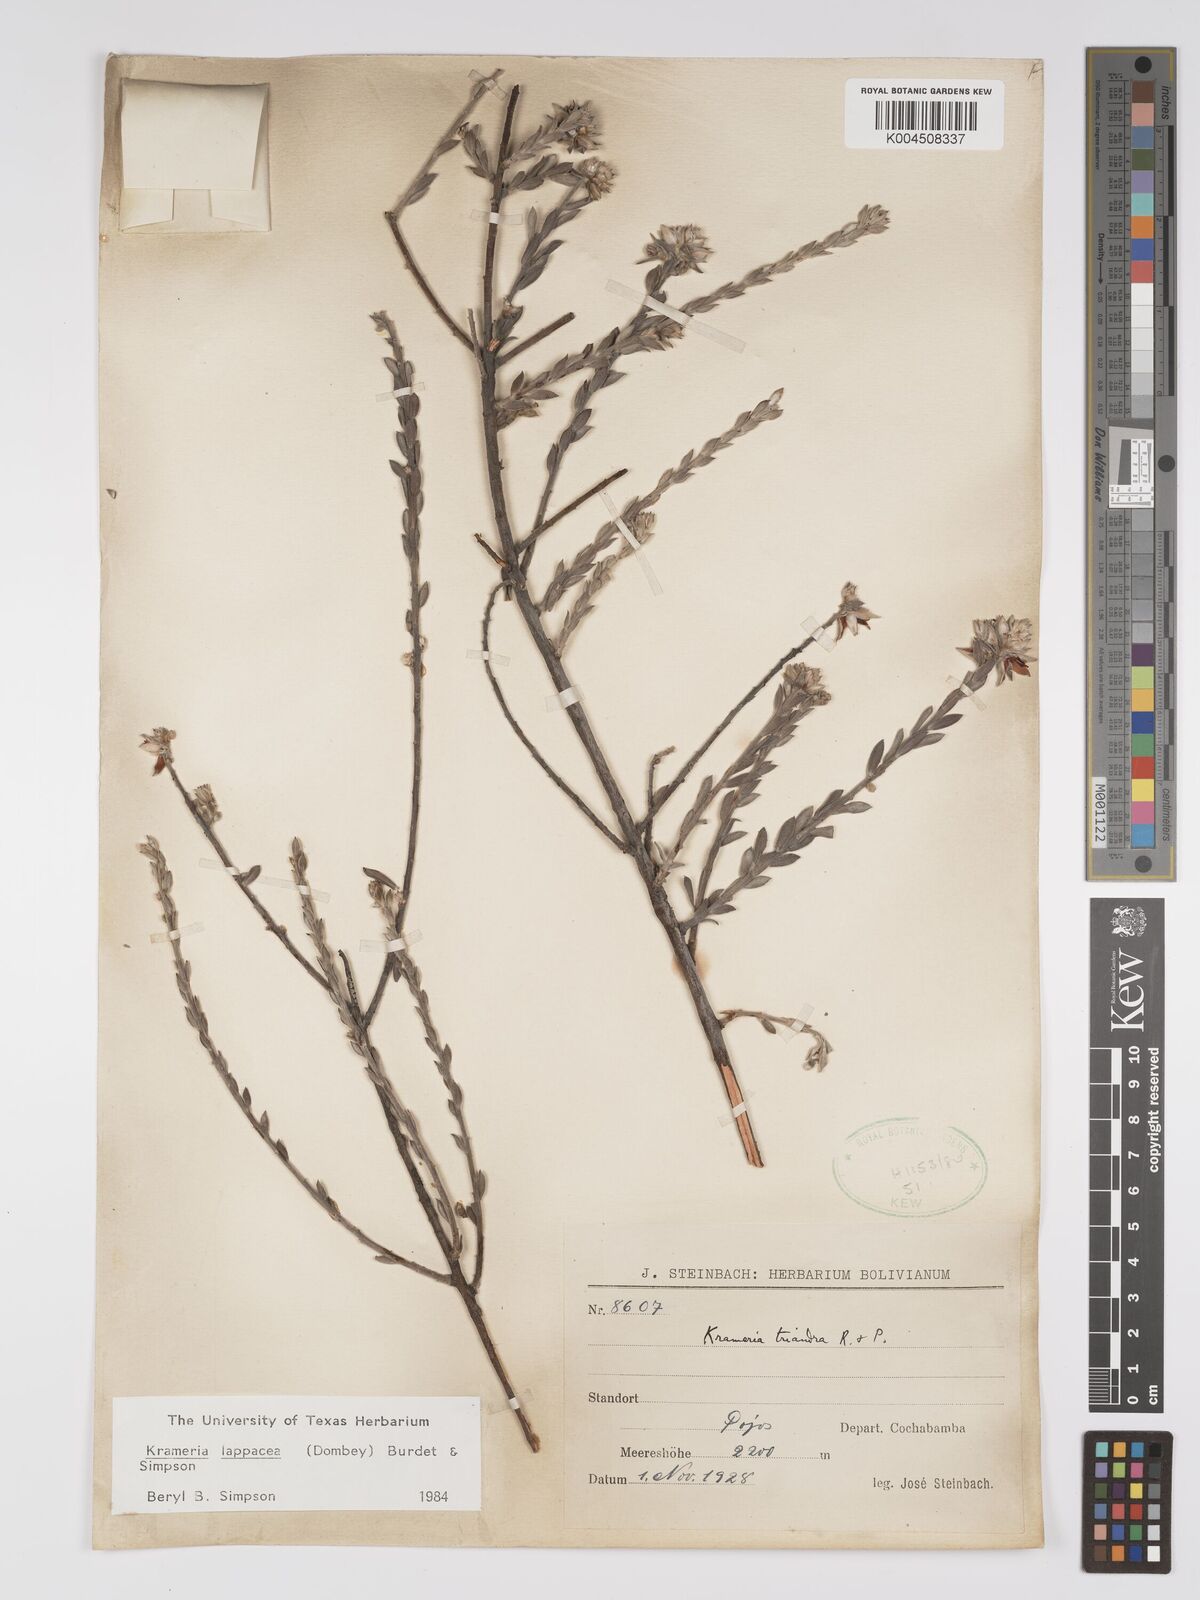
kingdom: Plantae
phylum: Tracheophyta
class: Magnoliopsida
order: Zygophyllales
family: Krameriaceae
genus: Krameria
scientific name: Krameria lappacea
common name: Rhatany
